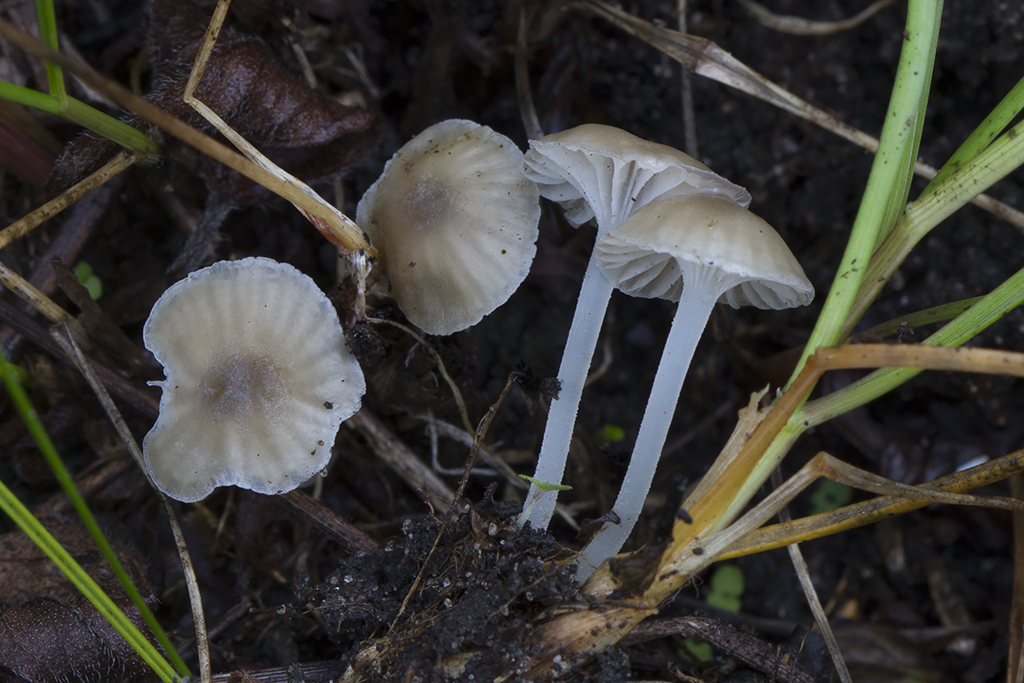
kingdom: Fungi
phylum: Basidiomycota
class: Agaricomycetes
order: Agaricales
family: Mycenaceae
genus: Hemimycena
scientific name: Hemimycena mairei
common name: voks-huesvamp
